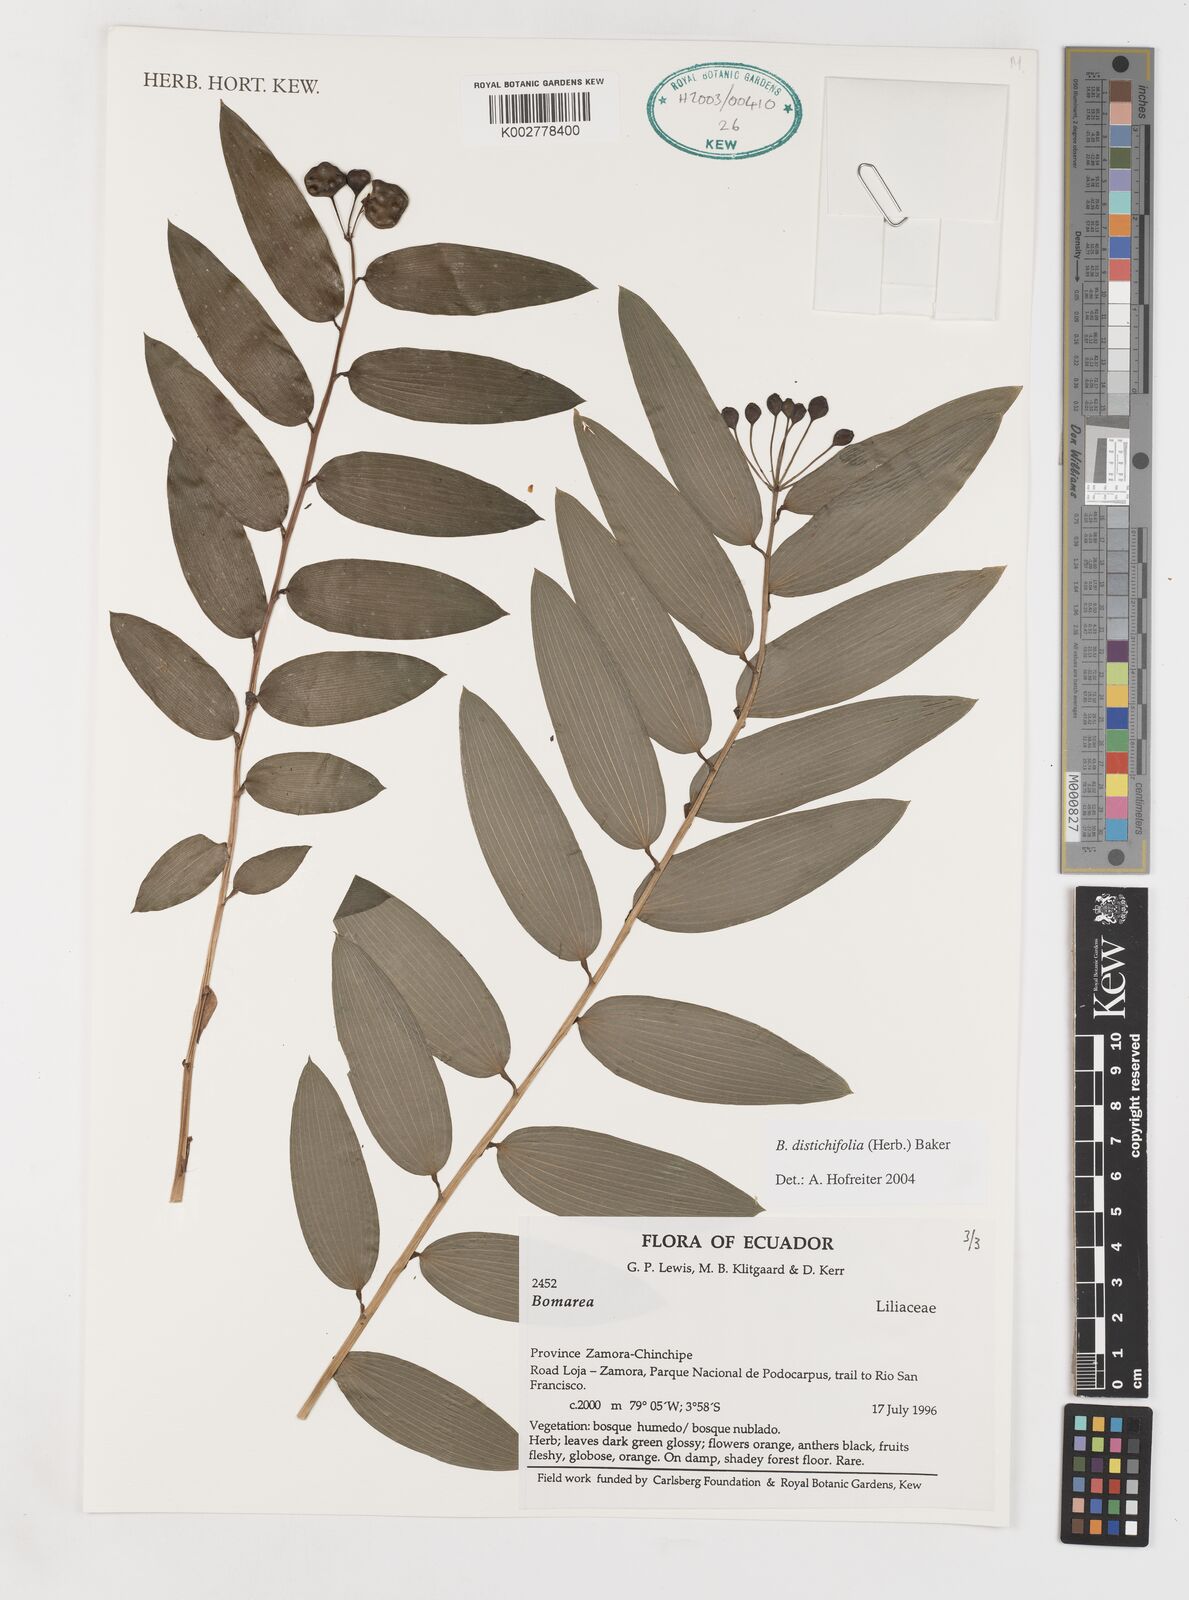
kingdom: Plantae
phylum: Tracheophyta
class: Liliopsida
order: Liliales
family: Alstroemeriaceae
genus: Bomarea
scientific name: Bomarea distichifolia
